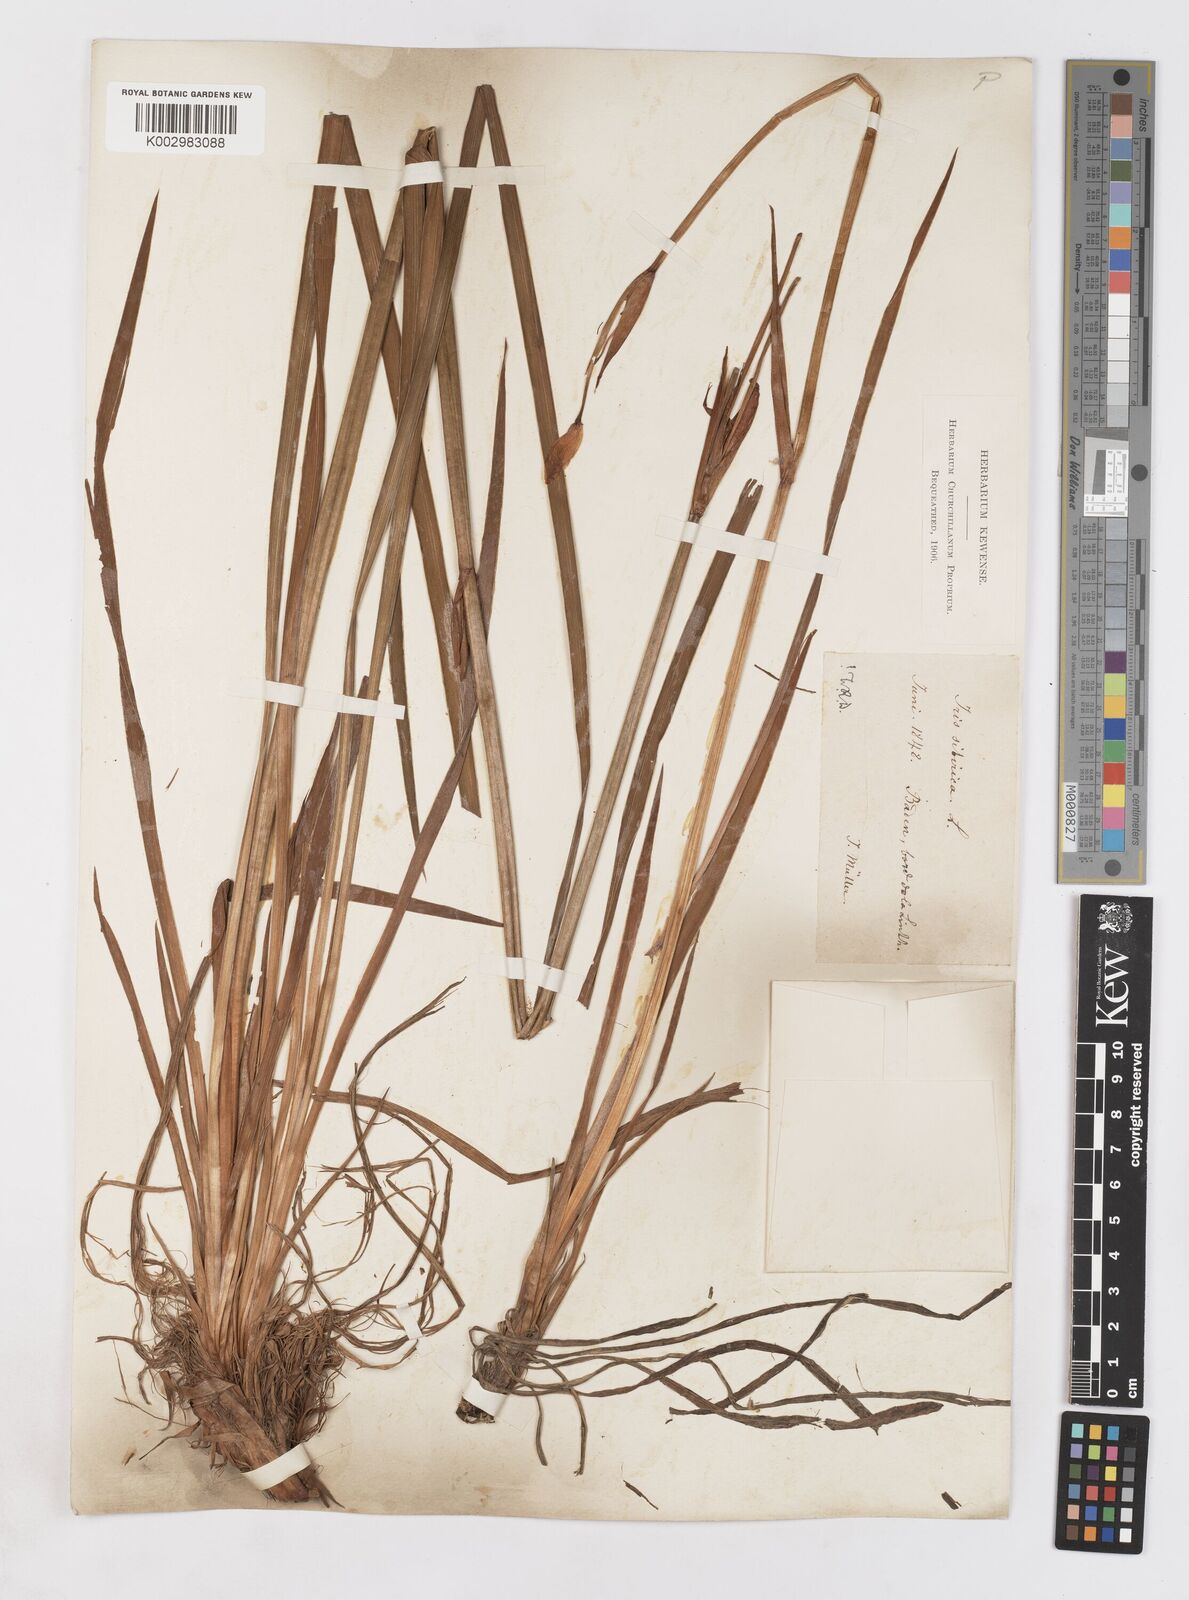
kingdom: Plantae
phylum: Tracheophyta
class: Liliopsida
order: Asparagales
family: Iridaceae
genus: Iris
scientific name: Iris sibirica
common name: Siberian iris
